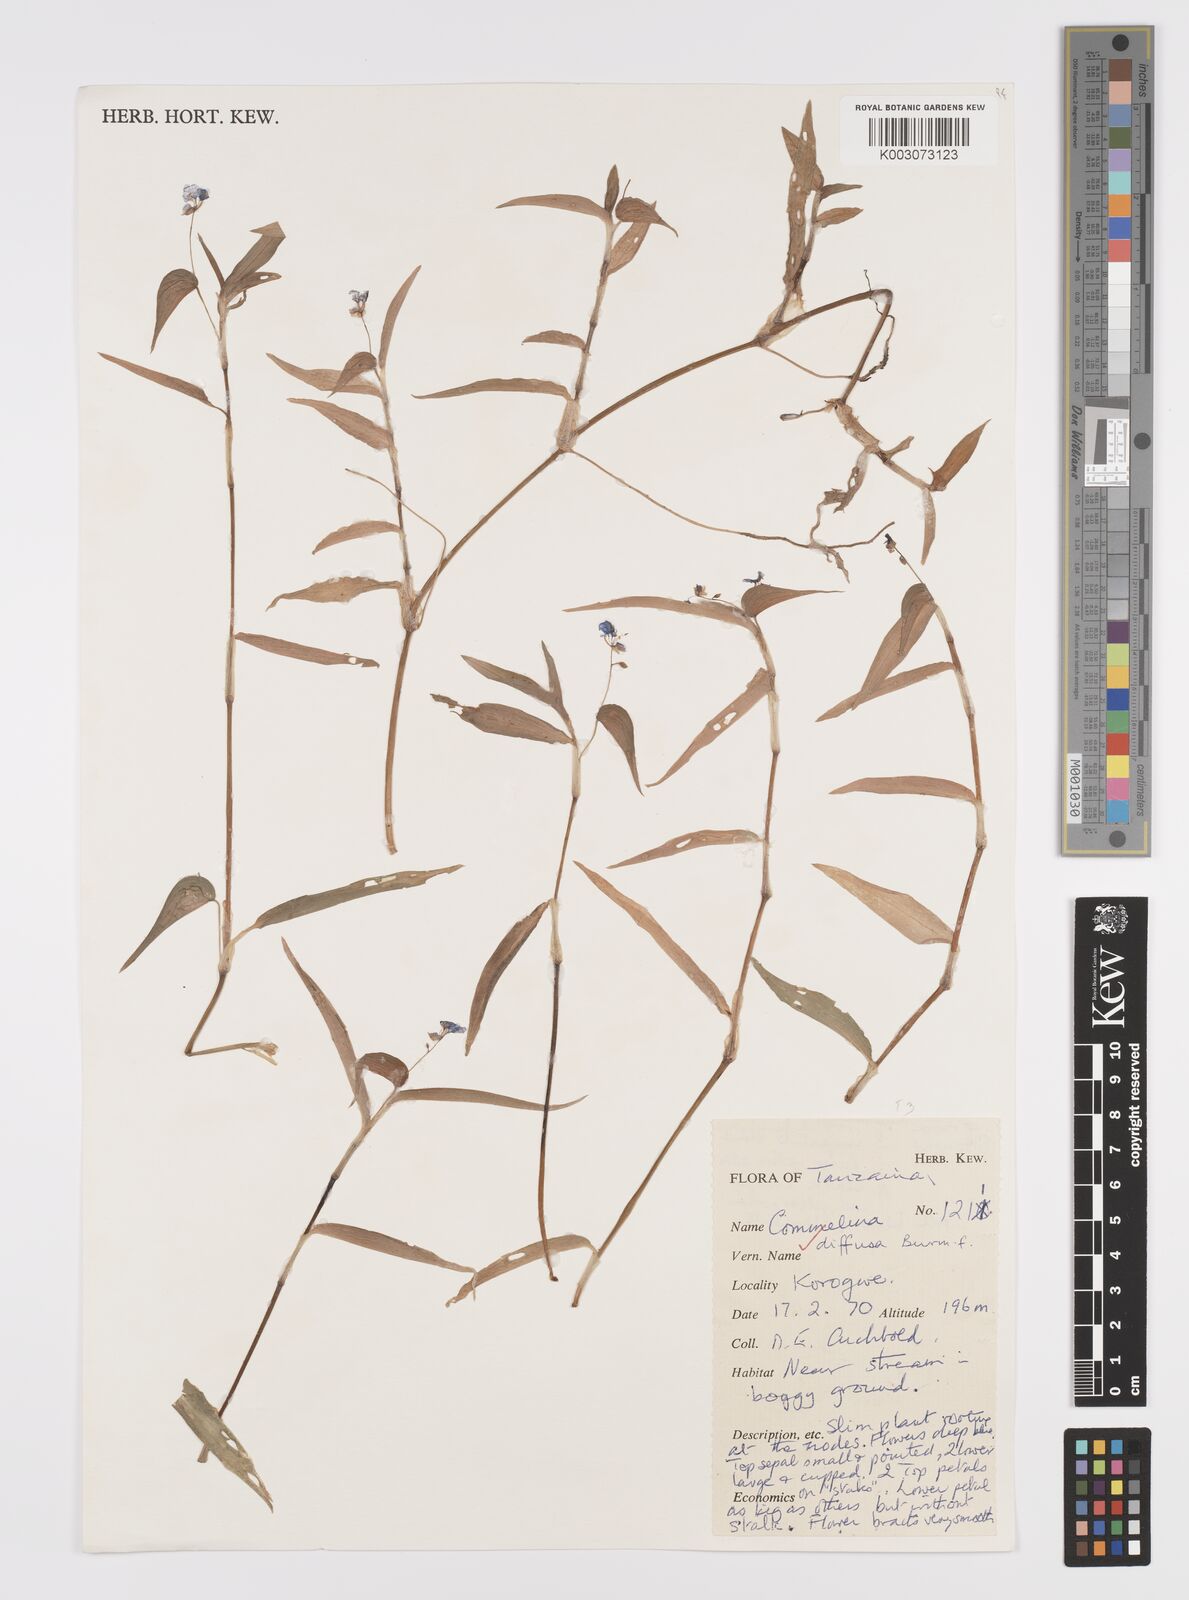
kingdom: Plantae
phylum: Tracheophyta
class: Liliopsida
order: Commelinales
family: Commelinaceae
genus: Commelina
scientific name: Commelina diffusa
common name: Climbing dayflower
